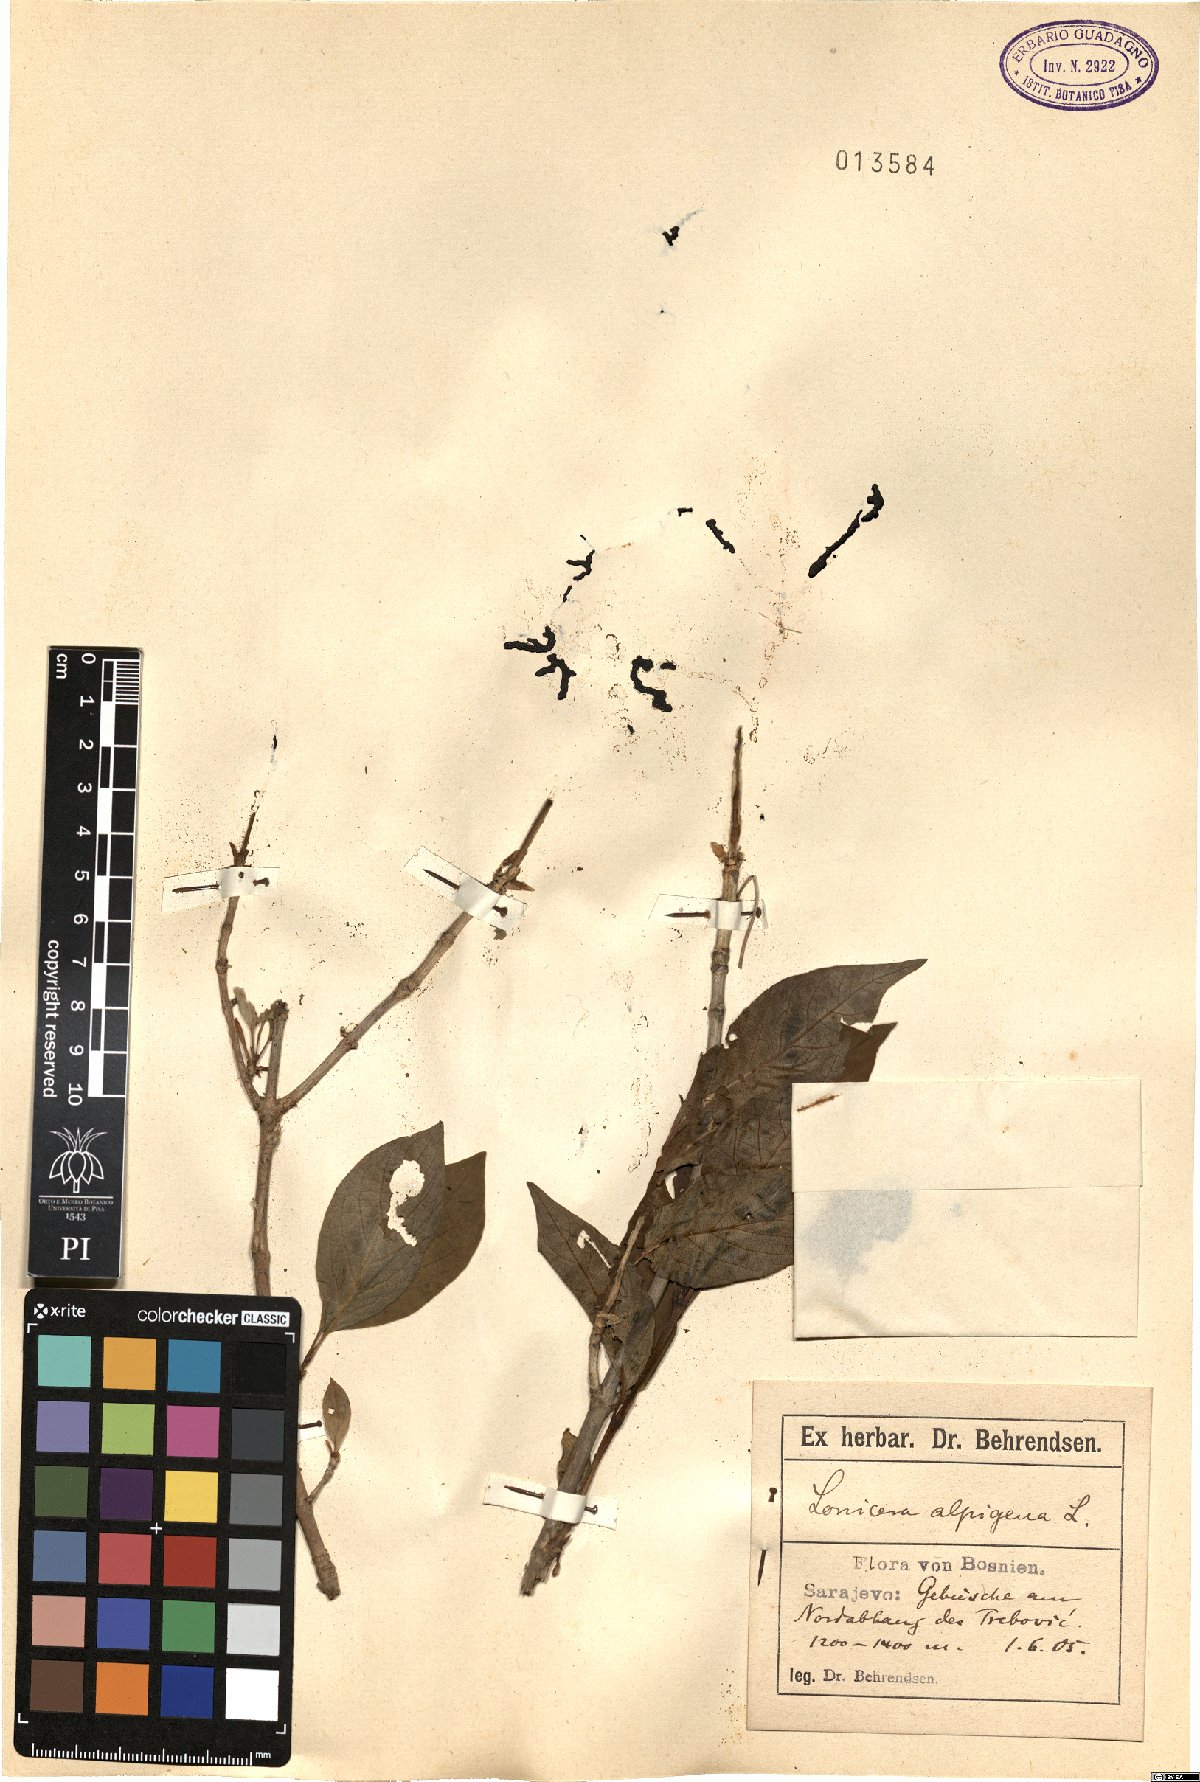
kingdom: Plantae
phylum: Tracheophyta
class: Magnoliopsida
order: Dipsacales
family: Caprifoliaceae
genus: Lonicera
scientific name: Lonicera alpigena
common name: Alpine honeysuckle
